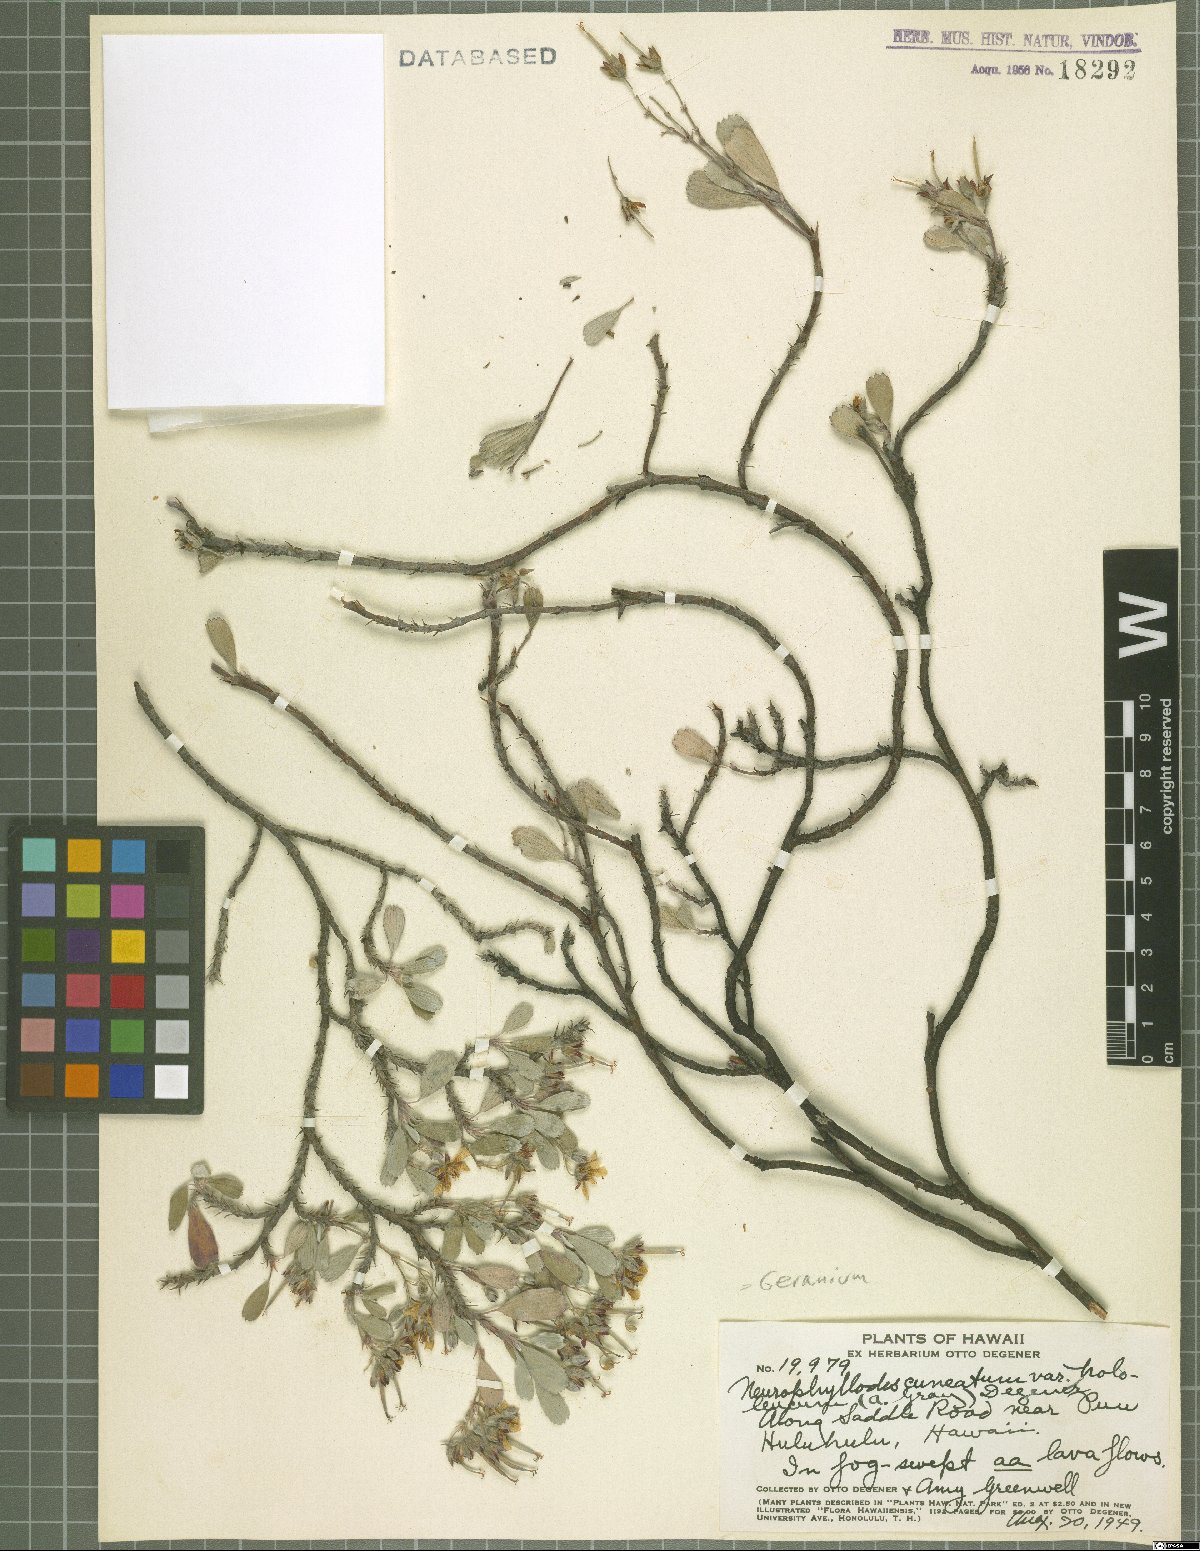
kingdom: Plantae
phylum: Tracheophyta
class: Magnoliopsida
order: Geraniales
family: Geraniaceae
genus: Geranium
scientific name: Geranium cuneatum
